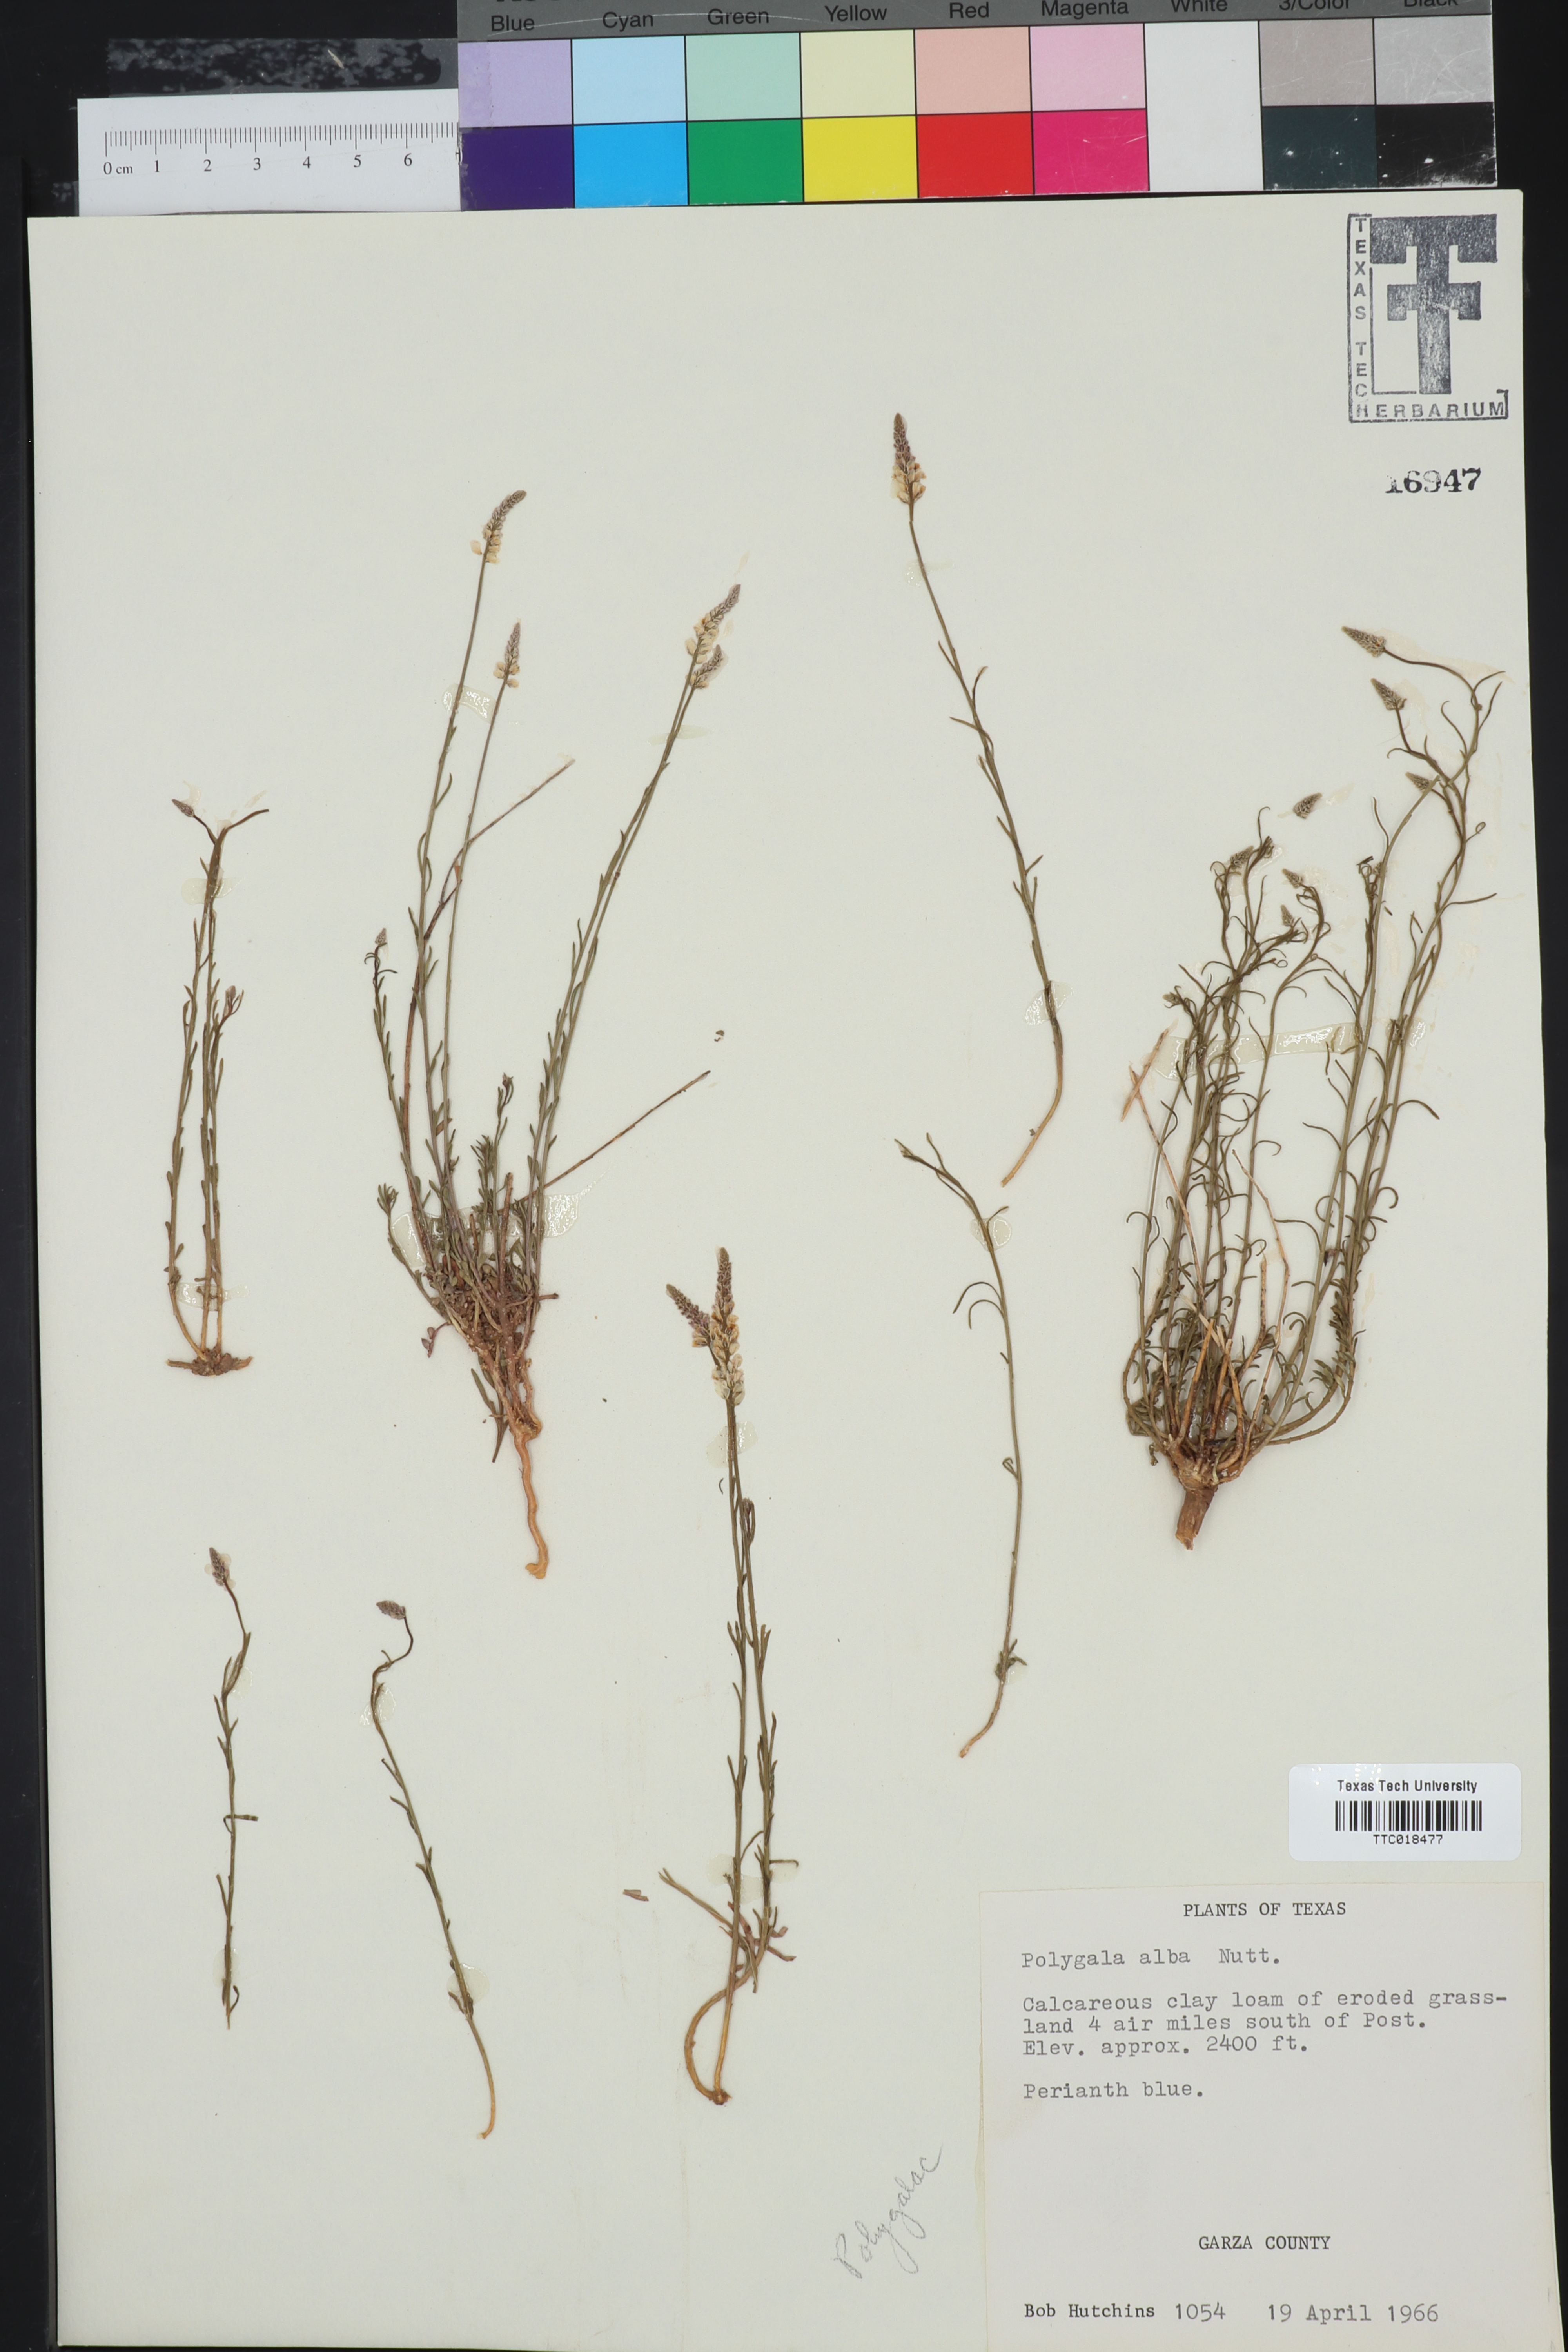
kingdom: Plantae
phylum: Tracheophyta
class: Magnoliopsida
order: Fabales
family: Polygalaceae
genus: Polygala
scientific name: Polygala alba
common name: White milkwort
